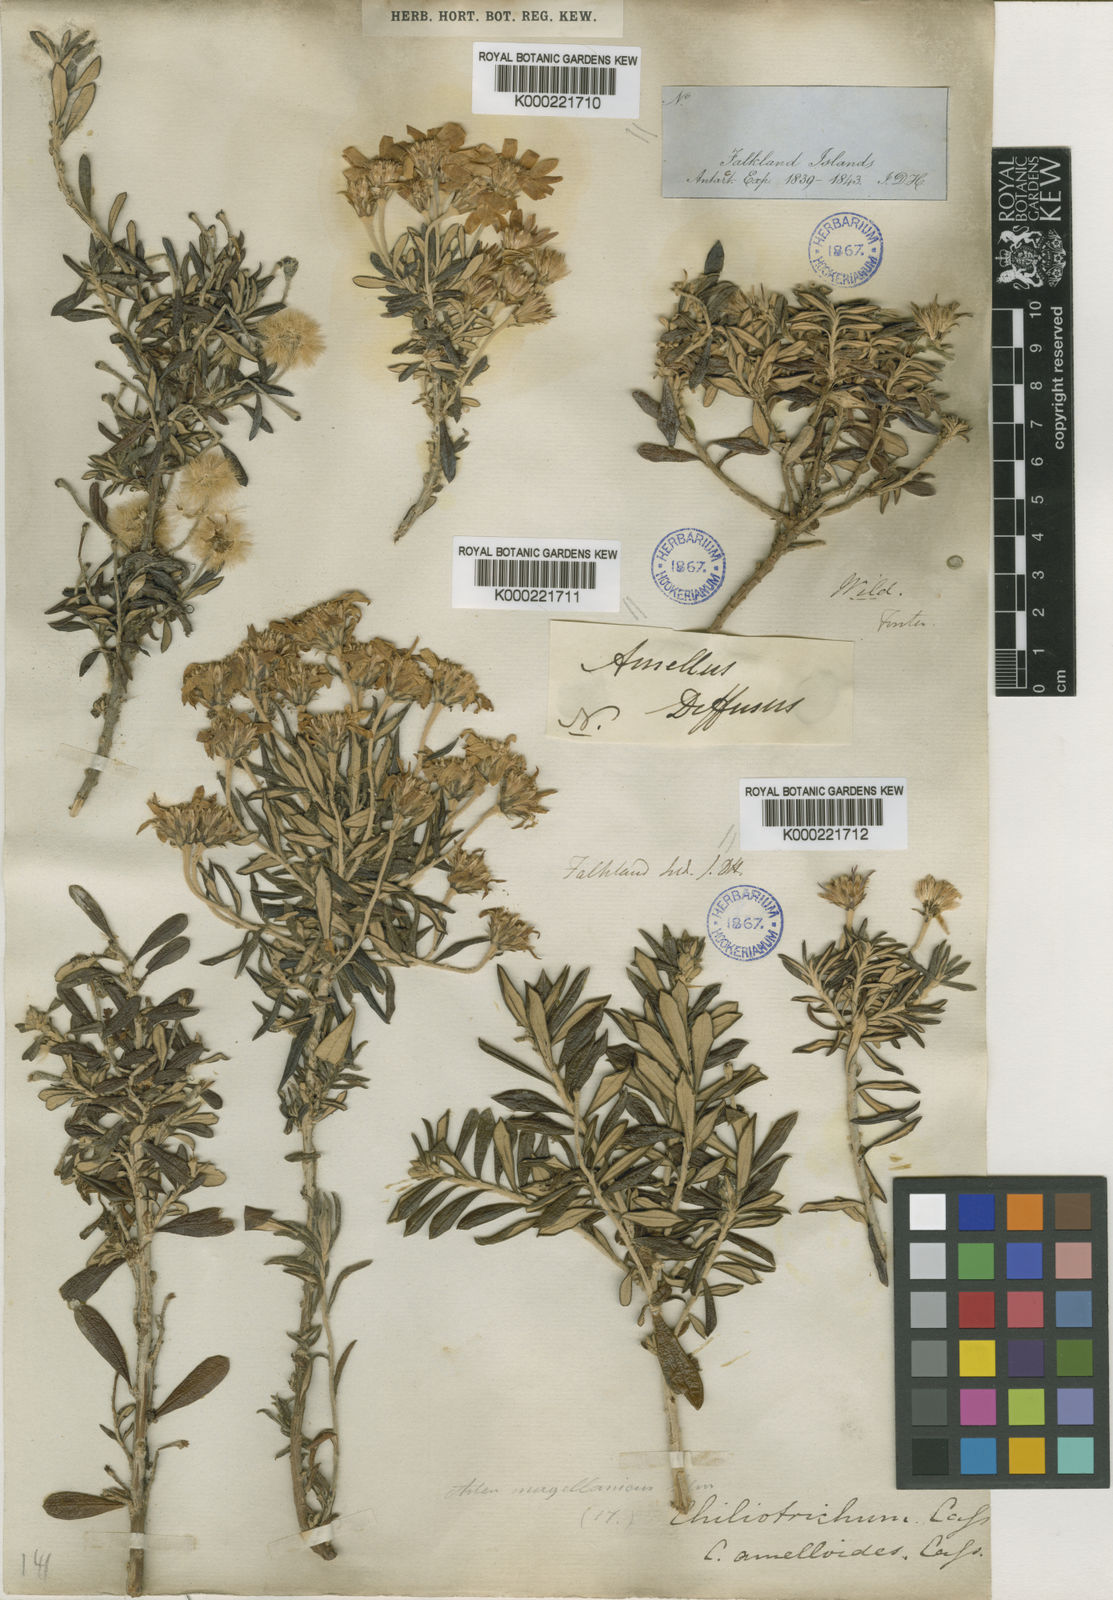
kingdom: Plantae
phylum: Tracheophyta
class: Magnoliopsida
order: Asterales
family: Asteraceae
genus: Chiliotrichum
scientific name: Chiliotrichum diffusum
